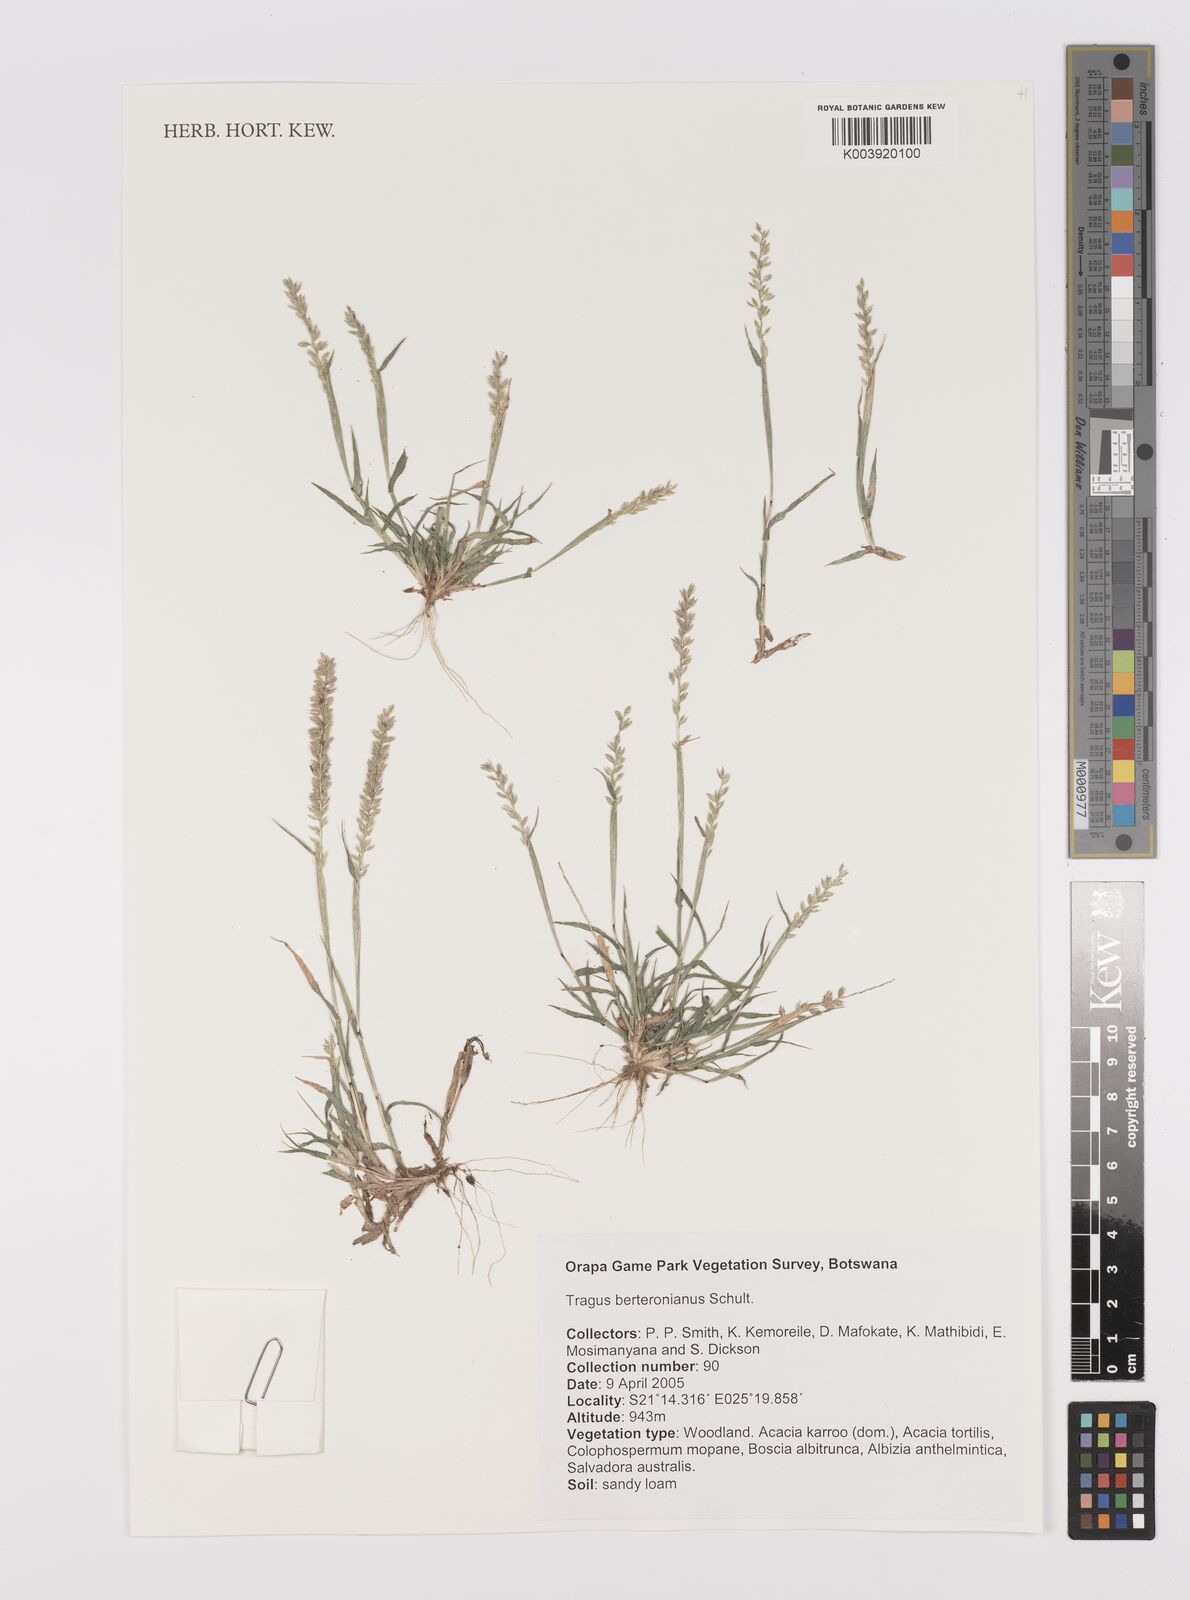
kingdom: Plantae
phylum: Tracheophyta
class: Liliopsida
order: Poales
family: Poaceae
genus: Tragus
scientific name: Tragus berteronianus
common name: African bur-grass
